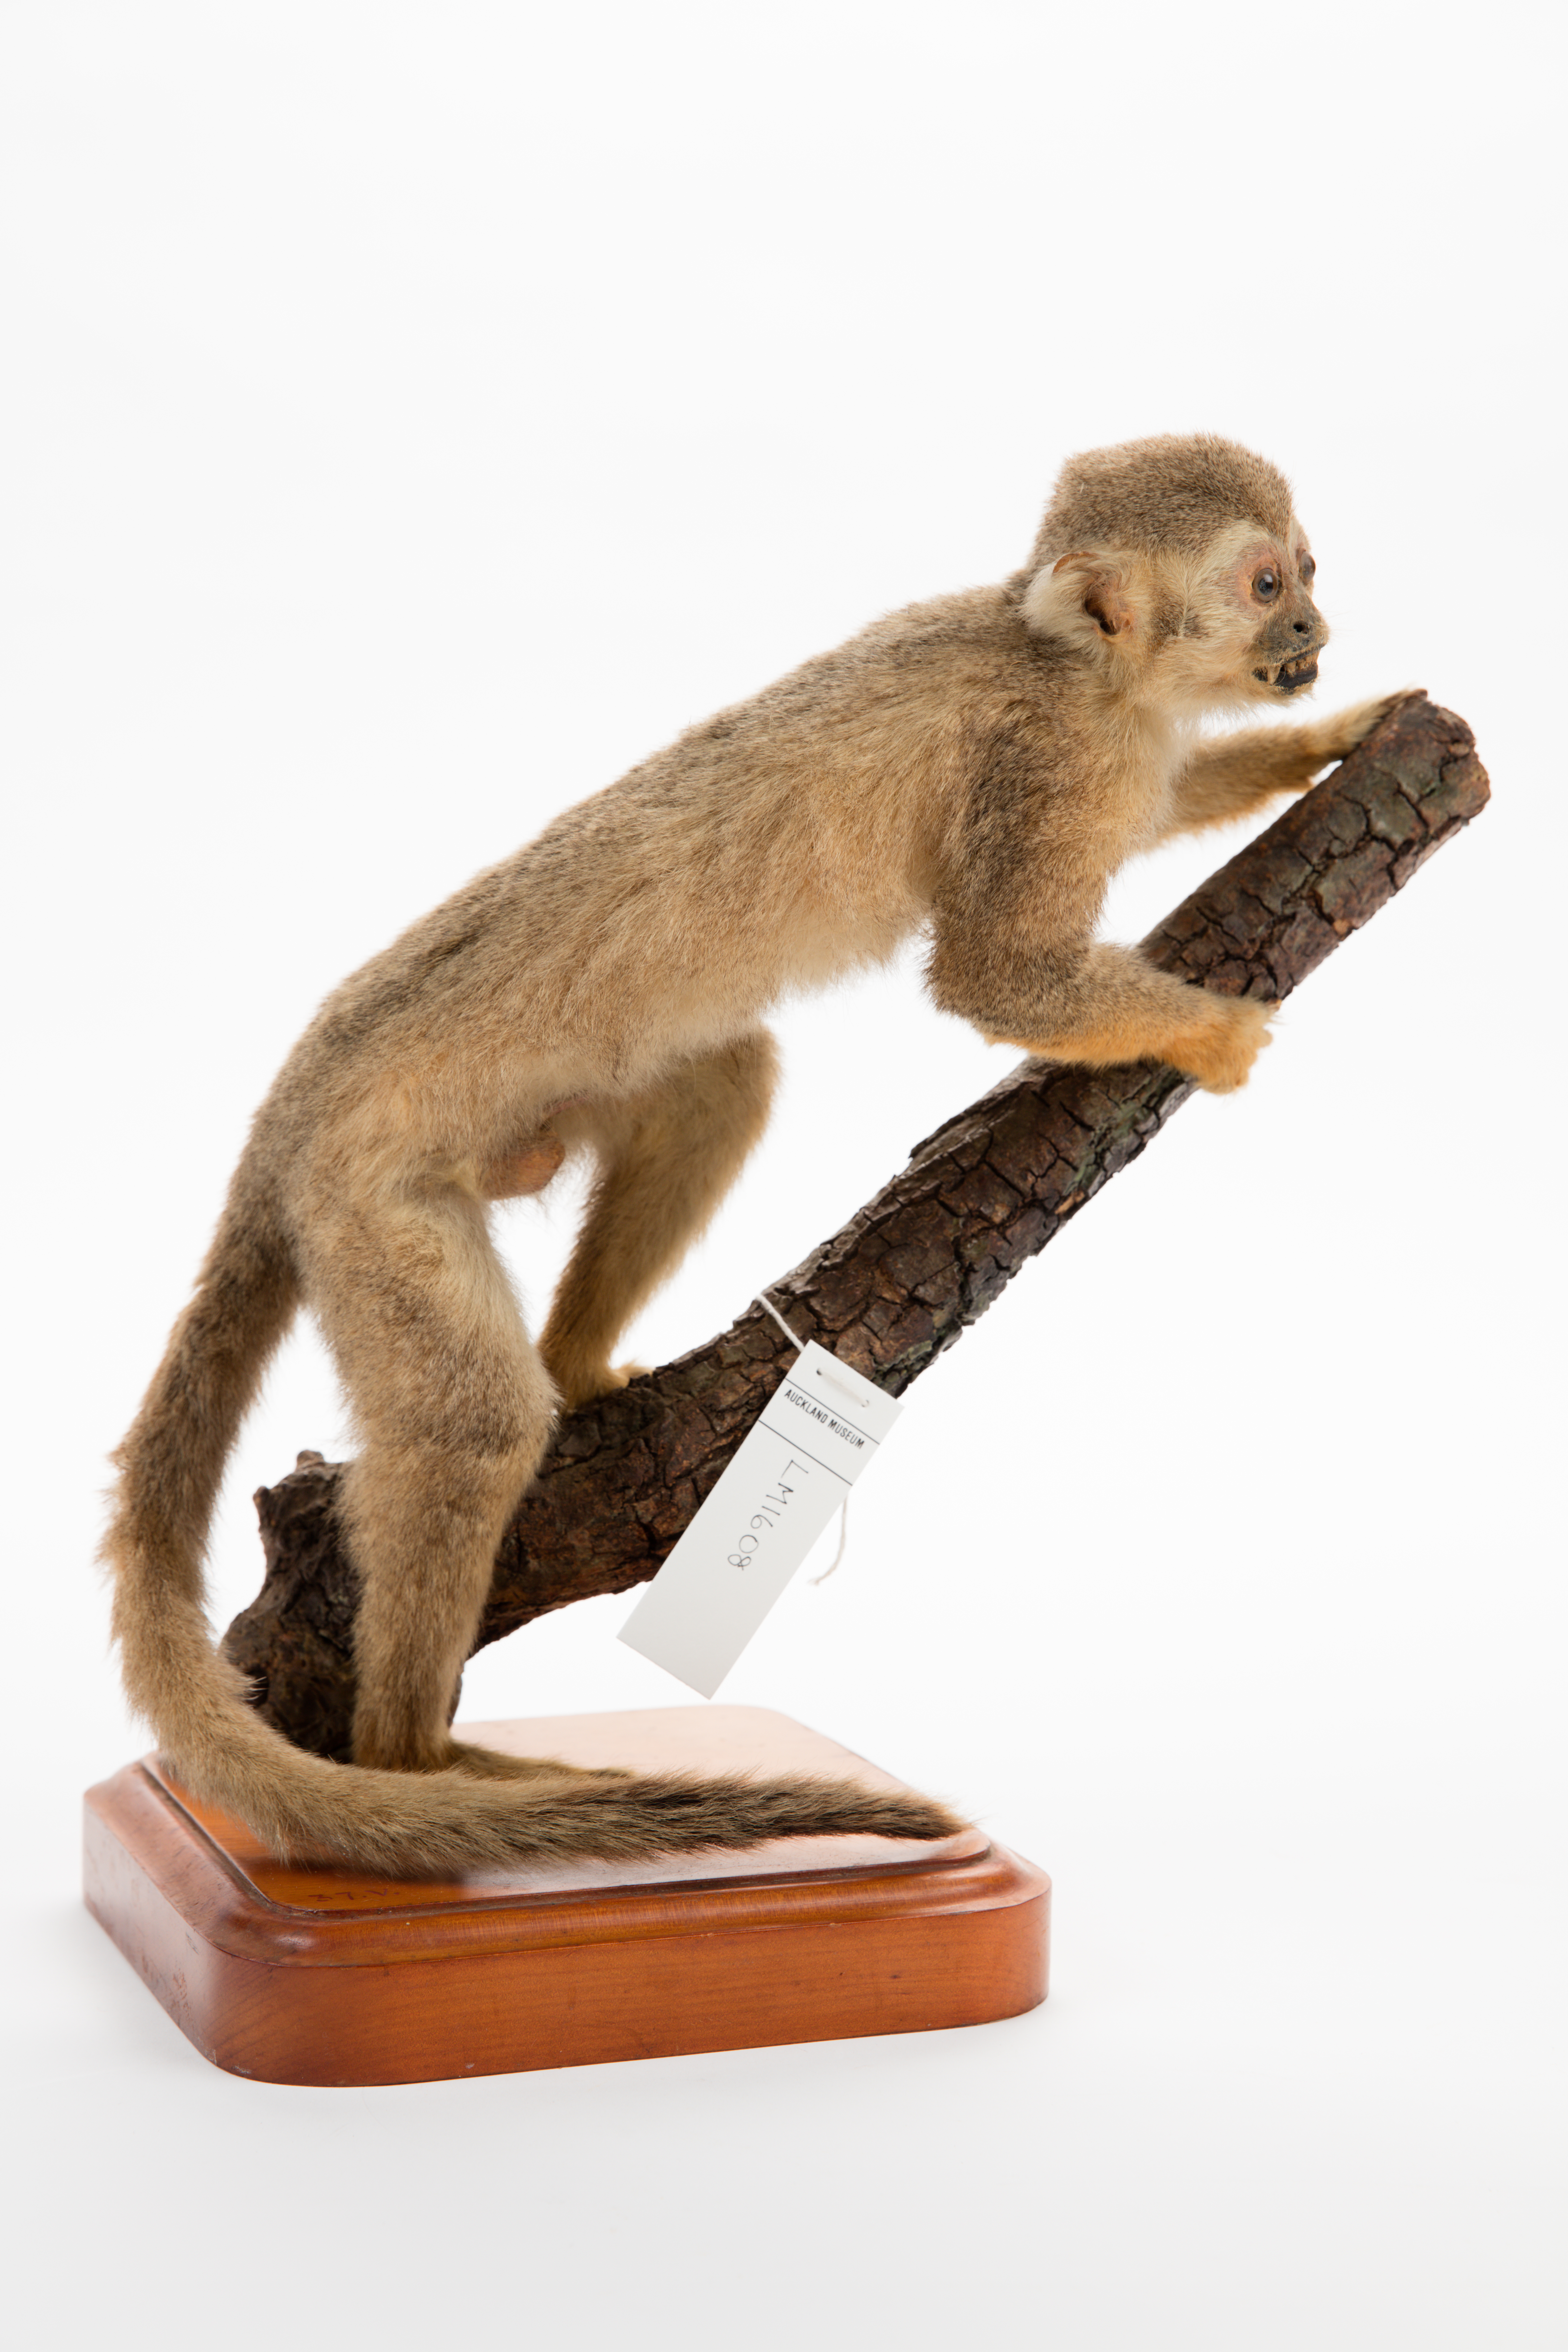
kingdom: Animalia
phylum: Chordata
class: Mammalia
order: Primates
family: Cebidae
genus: Saimiri
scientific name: Saimiri sciureus
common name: Common squirrel monkey
